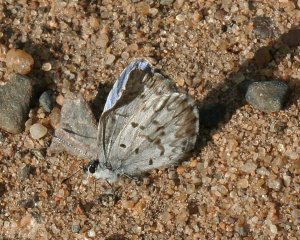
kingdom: Animalia
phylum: Arthropoda
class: Insecta
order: Lepidoptera
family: Lycaenidae
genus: Celastrina
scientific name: Celastrina lucia
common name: Northern Spring Azure
